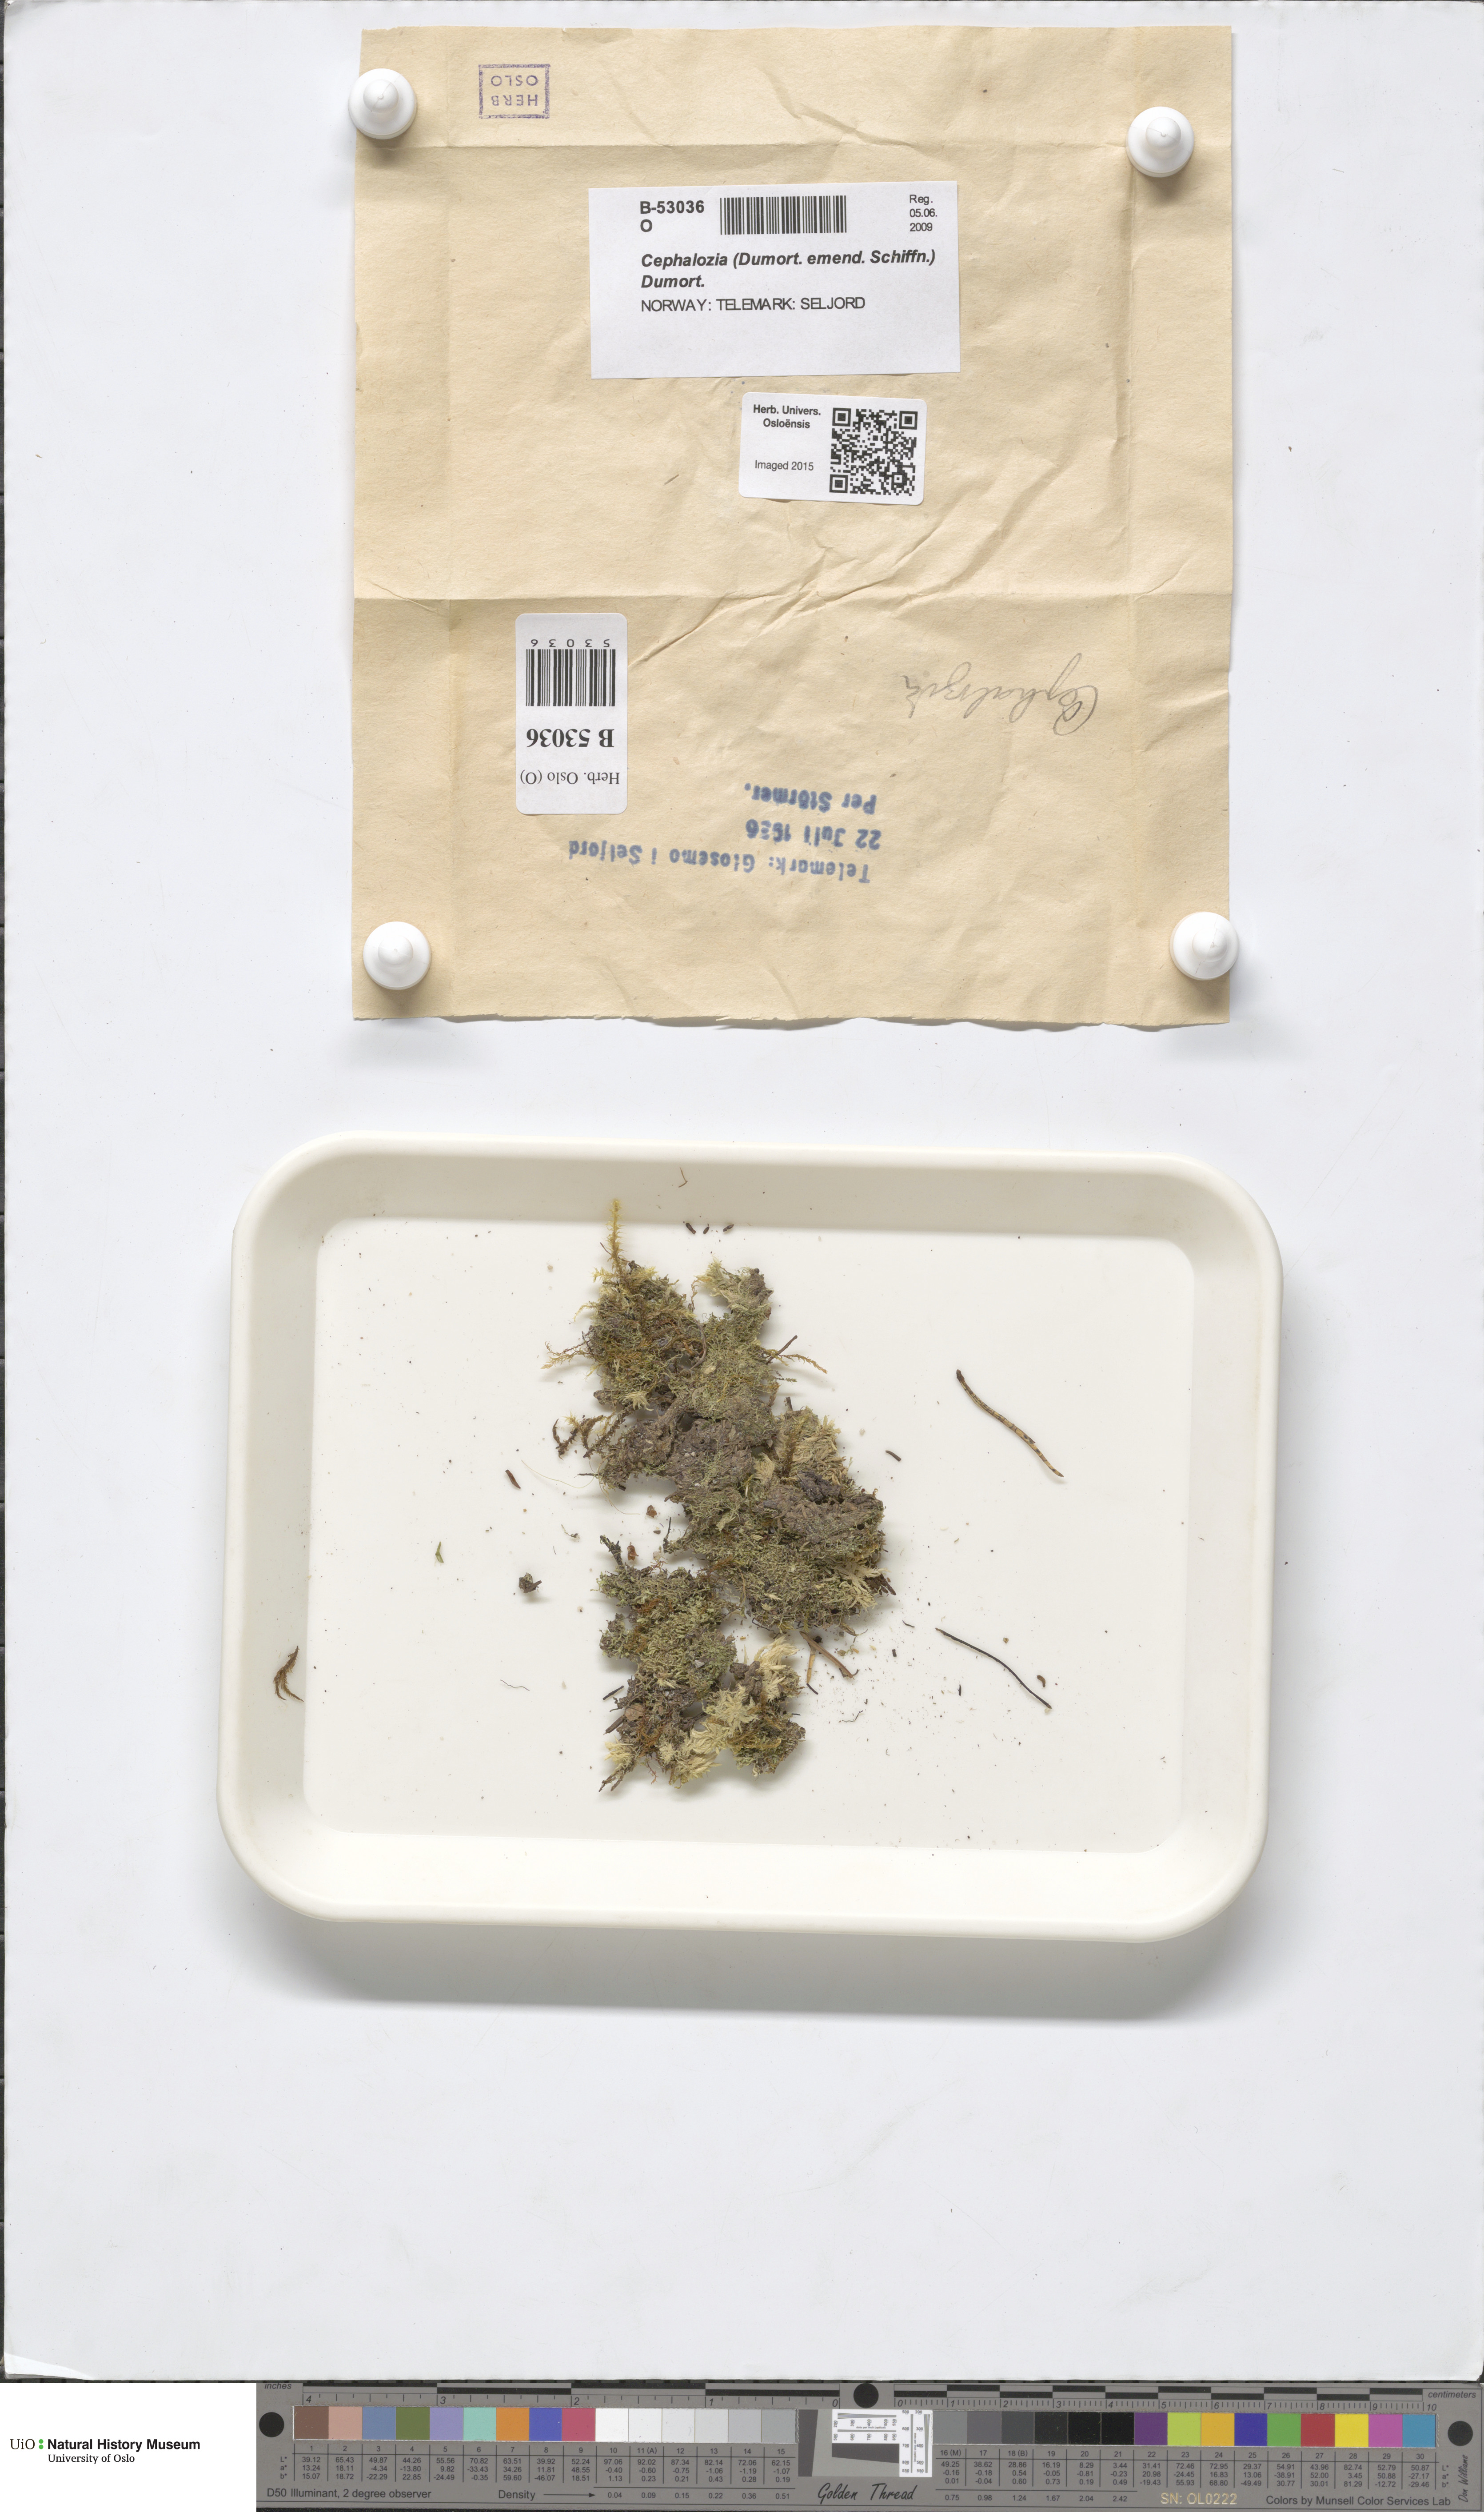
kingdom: Plantae
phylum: Marchantiophyta
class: Jungermanniopsida
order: Jungermanniales
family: Cephaloziaceae
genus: Cephalozia
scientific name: Cephalozia
